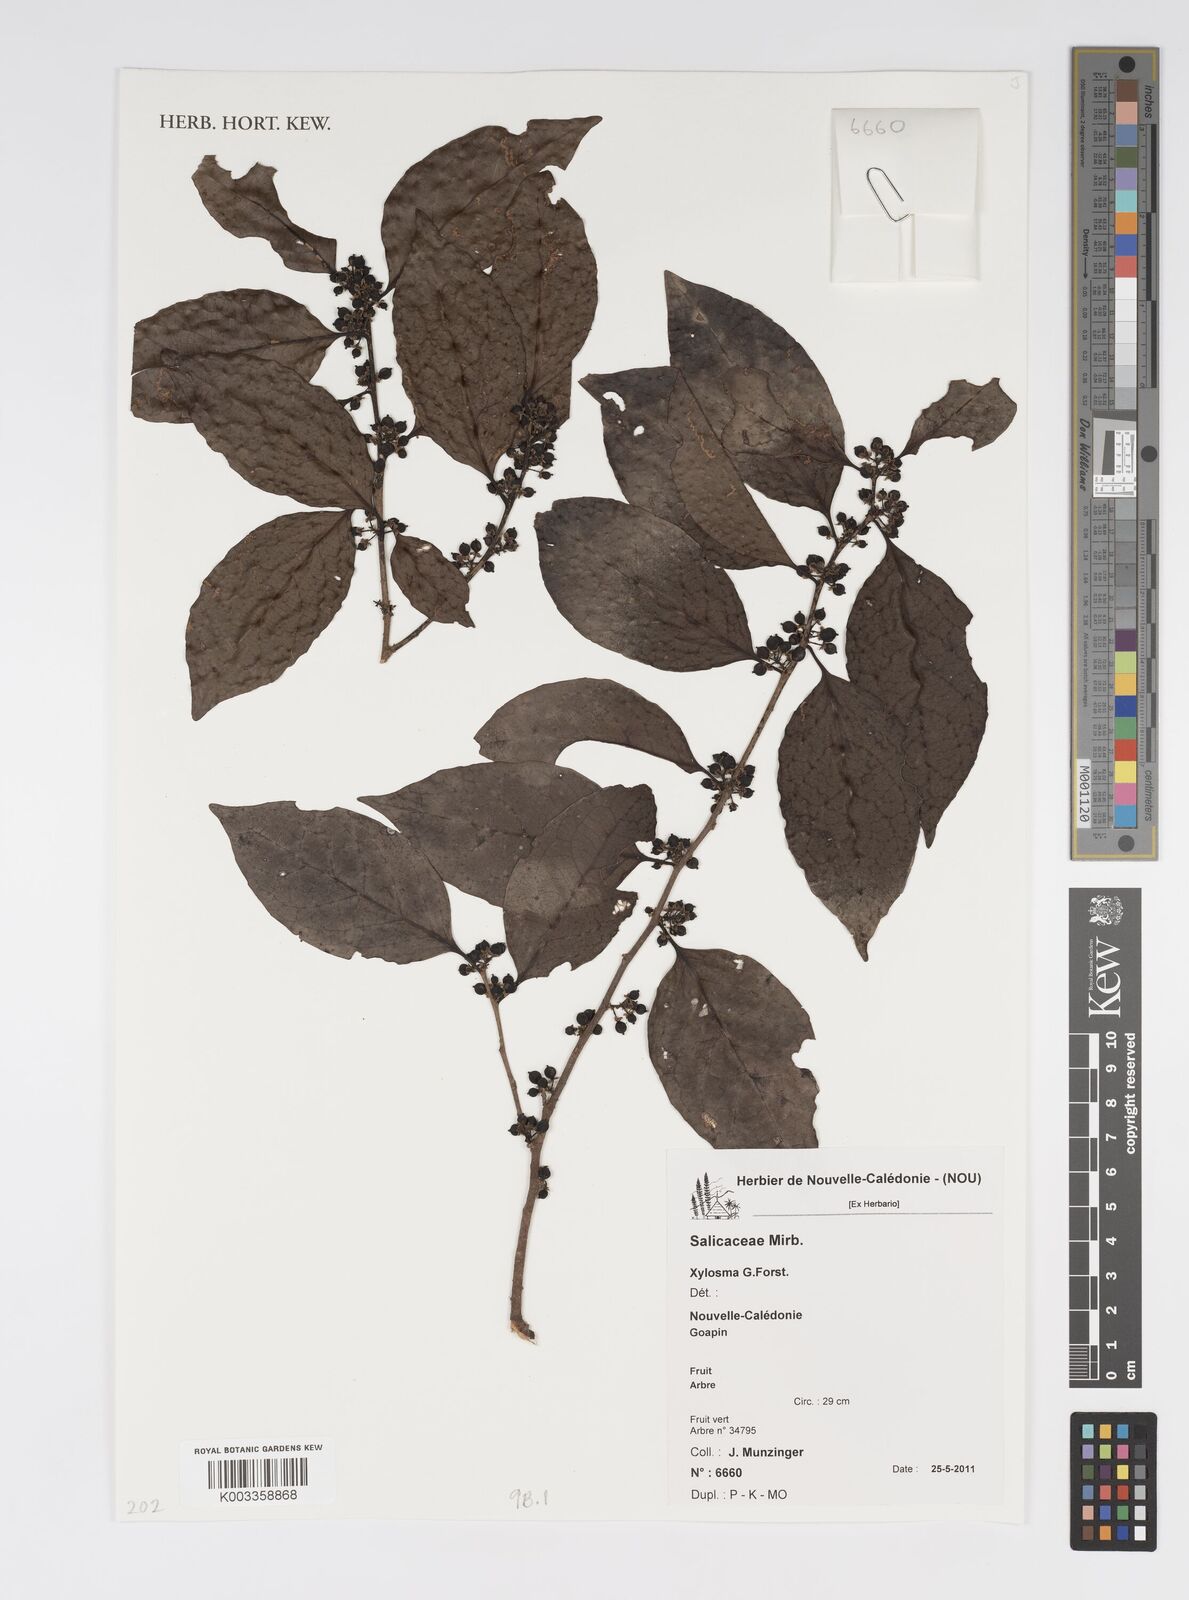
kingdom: Plantae
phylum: Tracheophyta
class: Magnoliopsida
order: Malpighiales
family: Salicaceae
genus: Xylosma
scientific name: Xylosma
